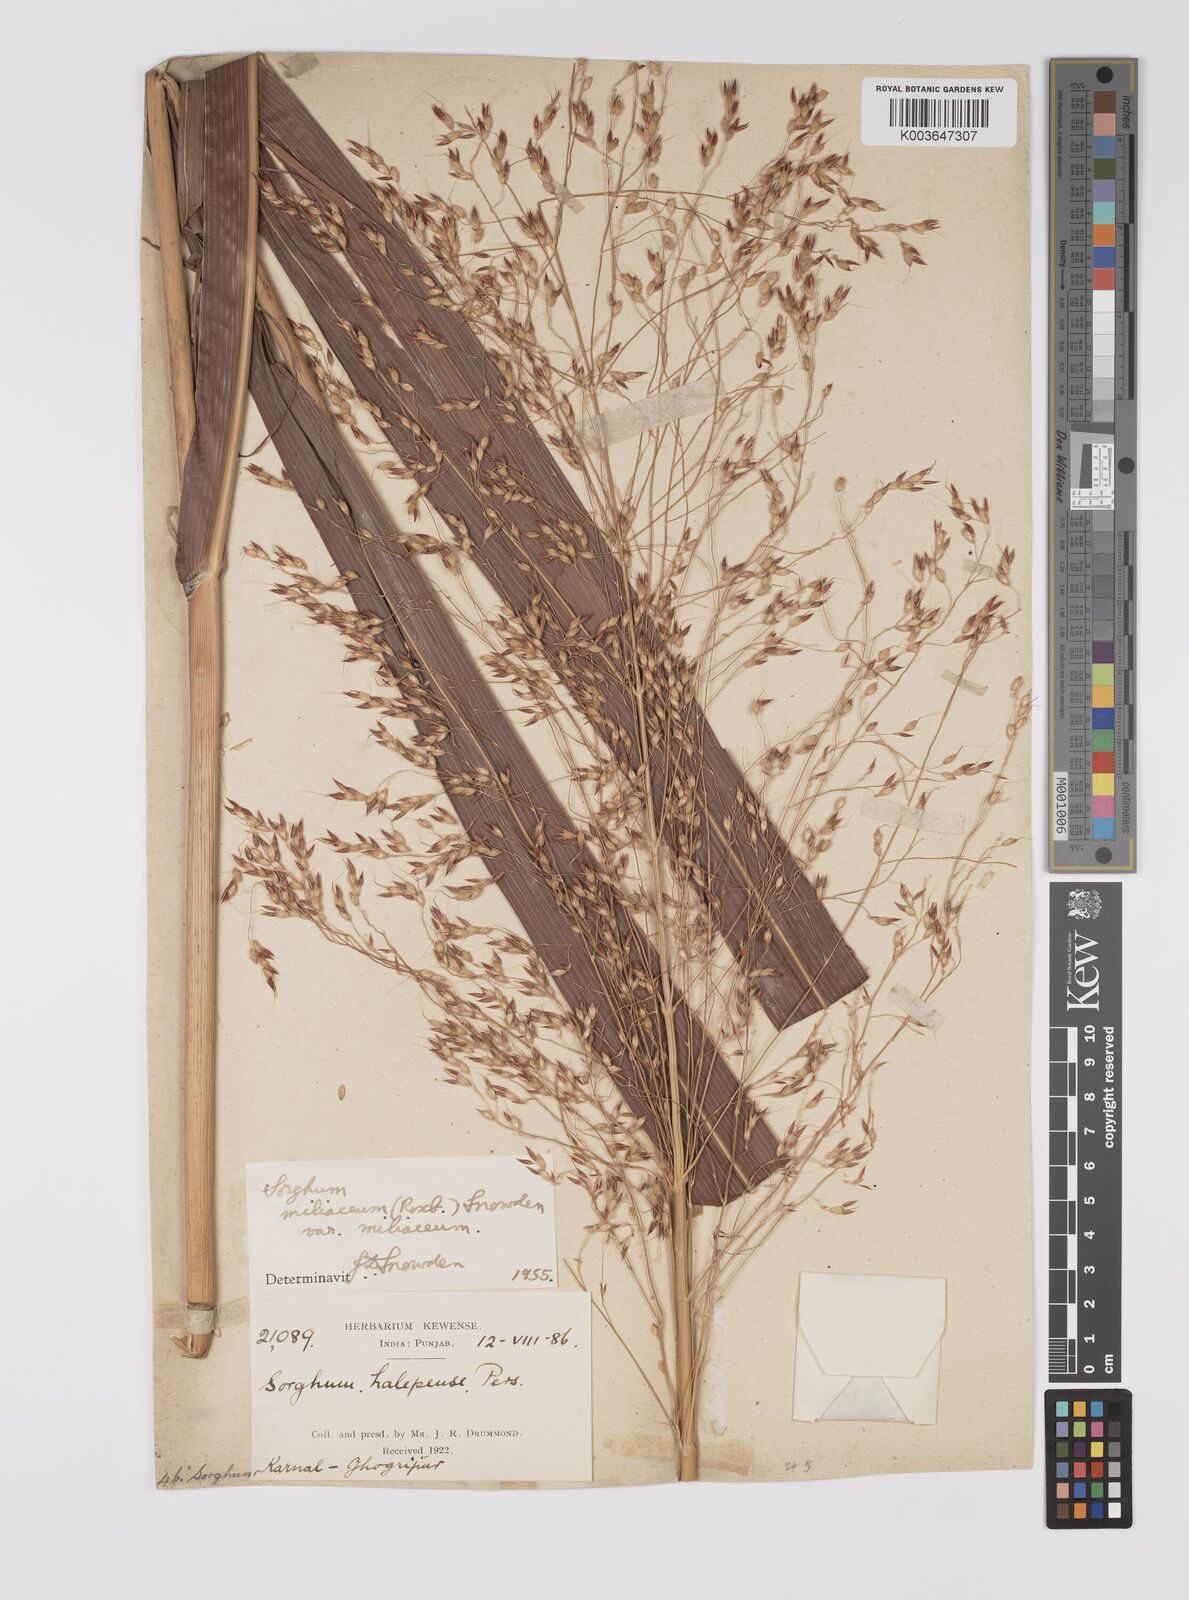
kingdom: Plantae
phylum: Tracheophyta
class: Liliopsida
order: Poales
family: Poaceae
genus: Sorghum
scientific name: Sorghum halepense
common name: Johnson-grass
